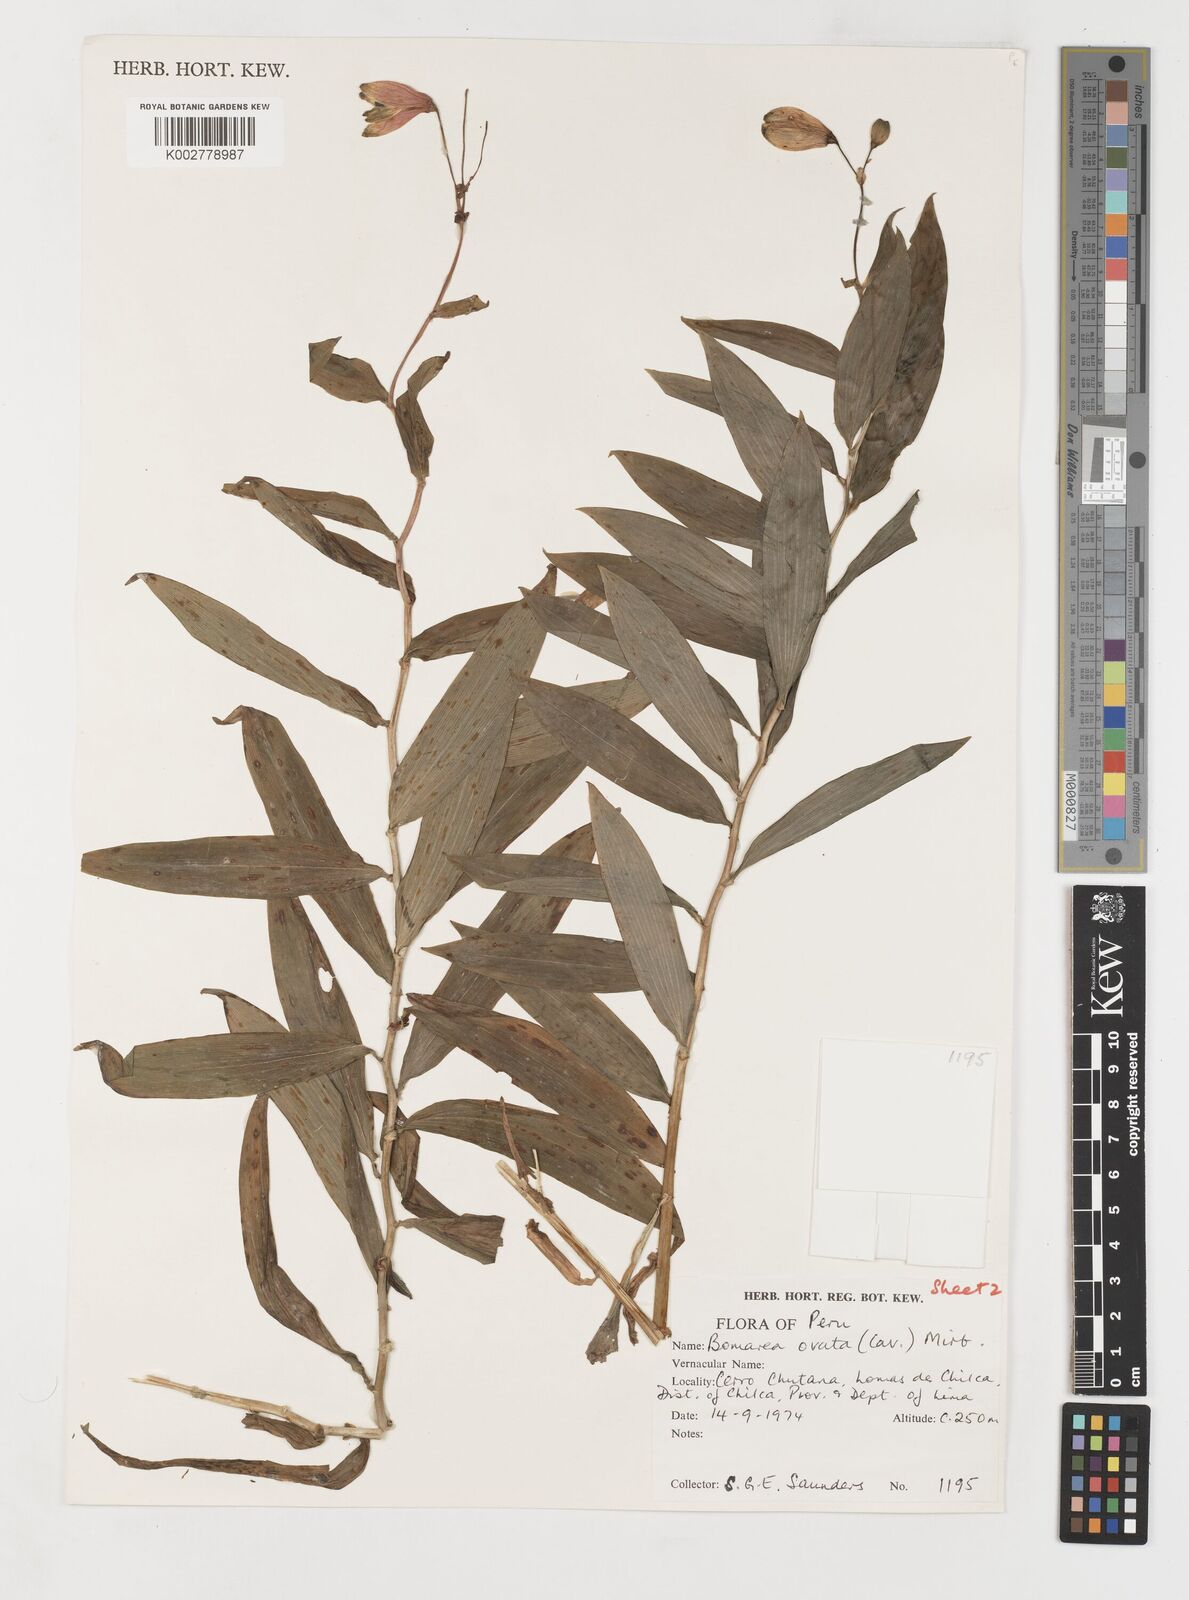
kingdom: Plantae
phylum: Tracheophyta
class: Liliopsida
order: Liliales
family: Alstroemeriaceae
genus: Bomarea
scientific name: Bomarea ovata
